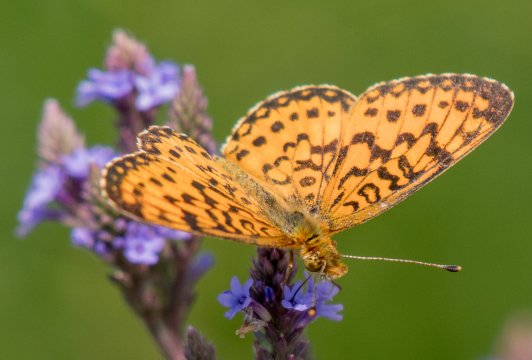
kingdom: Animalia
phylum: Arthropoda
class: Insecta
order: Lepidoptera
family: Nymphalidae
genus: Boloria
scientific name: Boloria selene
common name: Silver-bordered Fritillary
